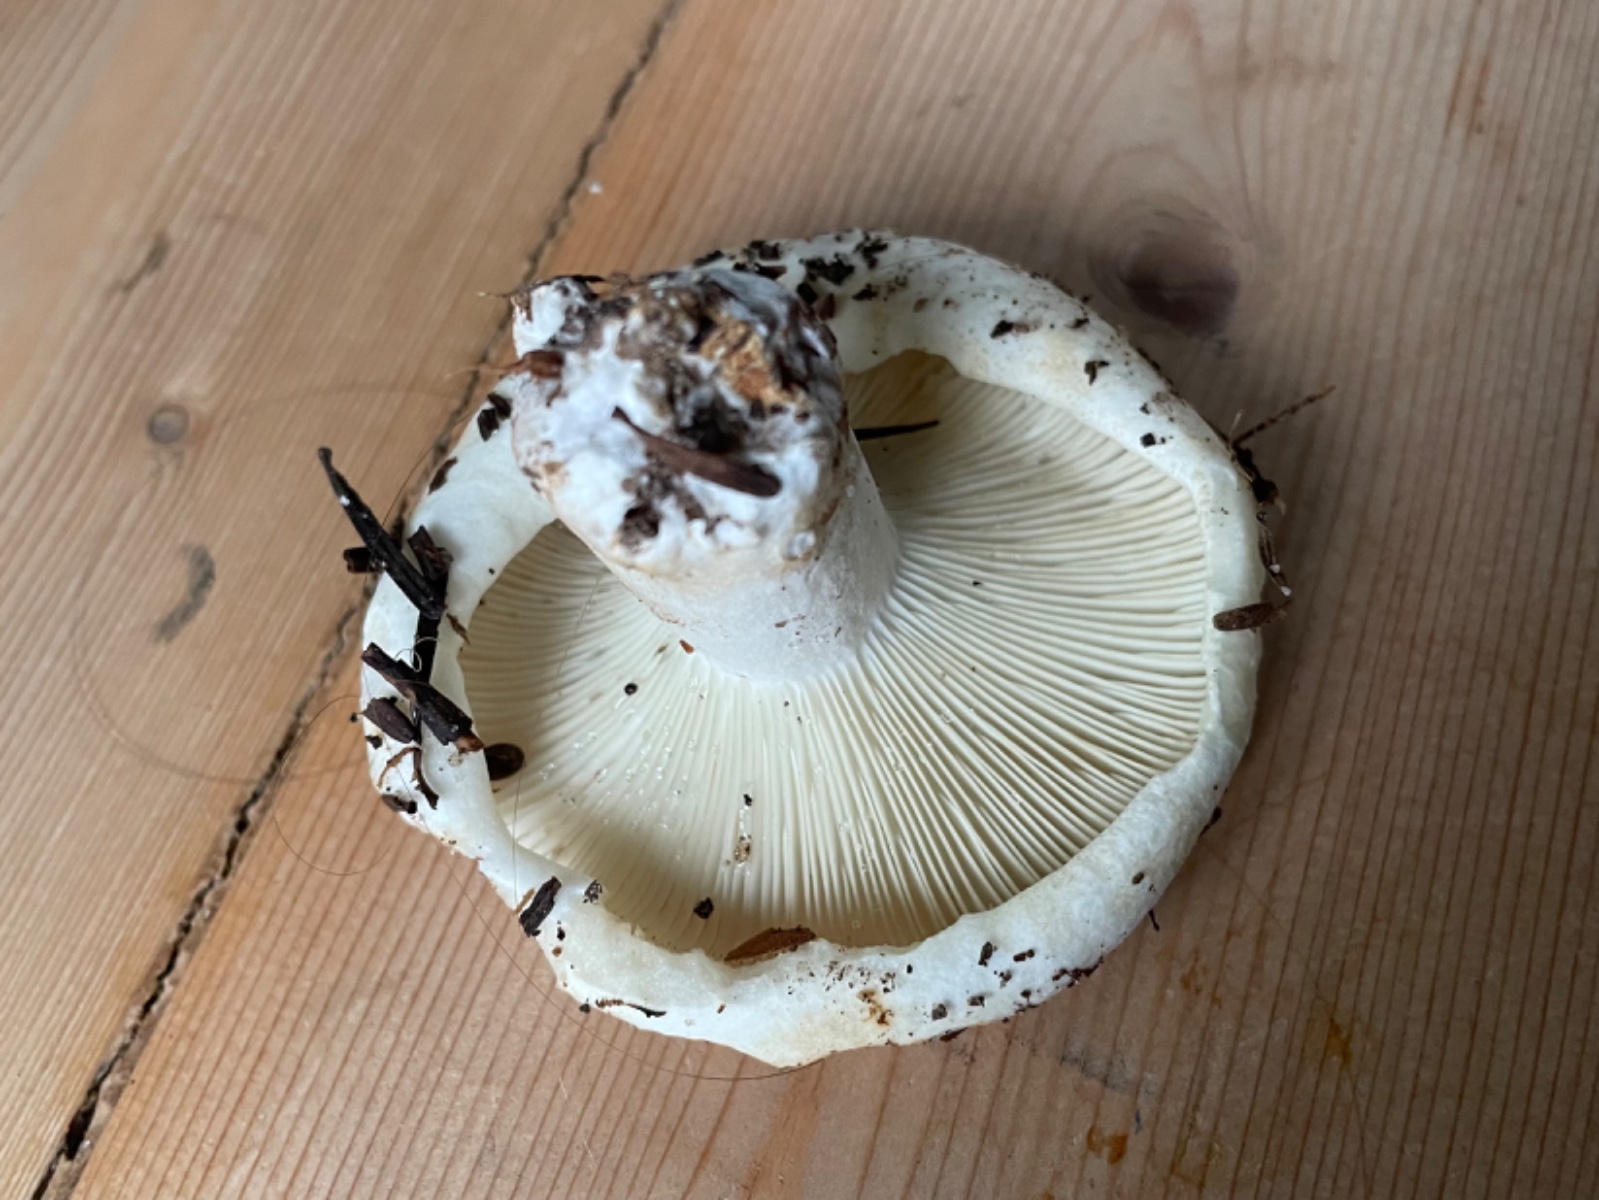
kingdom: Fungi
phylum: Basidiomycota
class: Agaricomycetes
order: Russulales
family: Russulaceae
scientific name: Russulaceae
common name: skørhatfamilien
